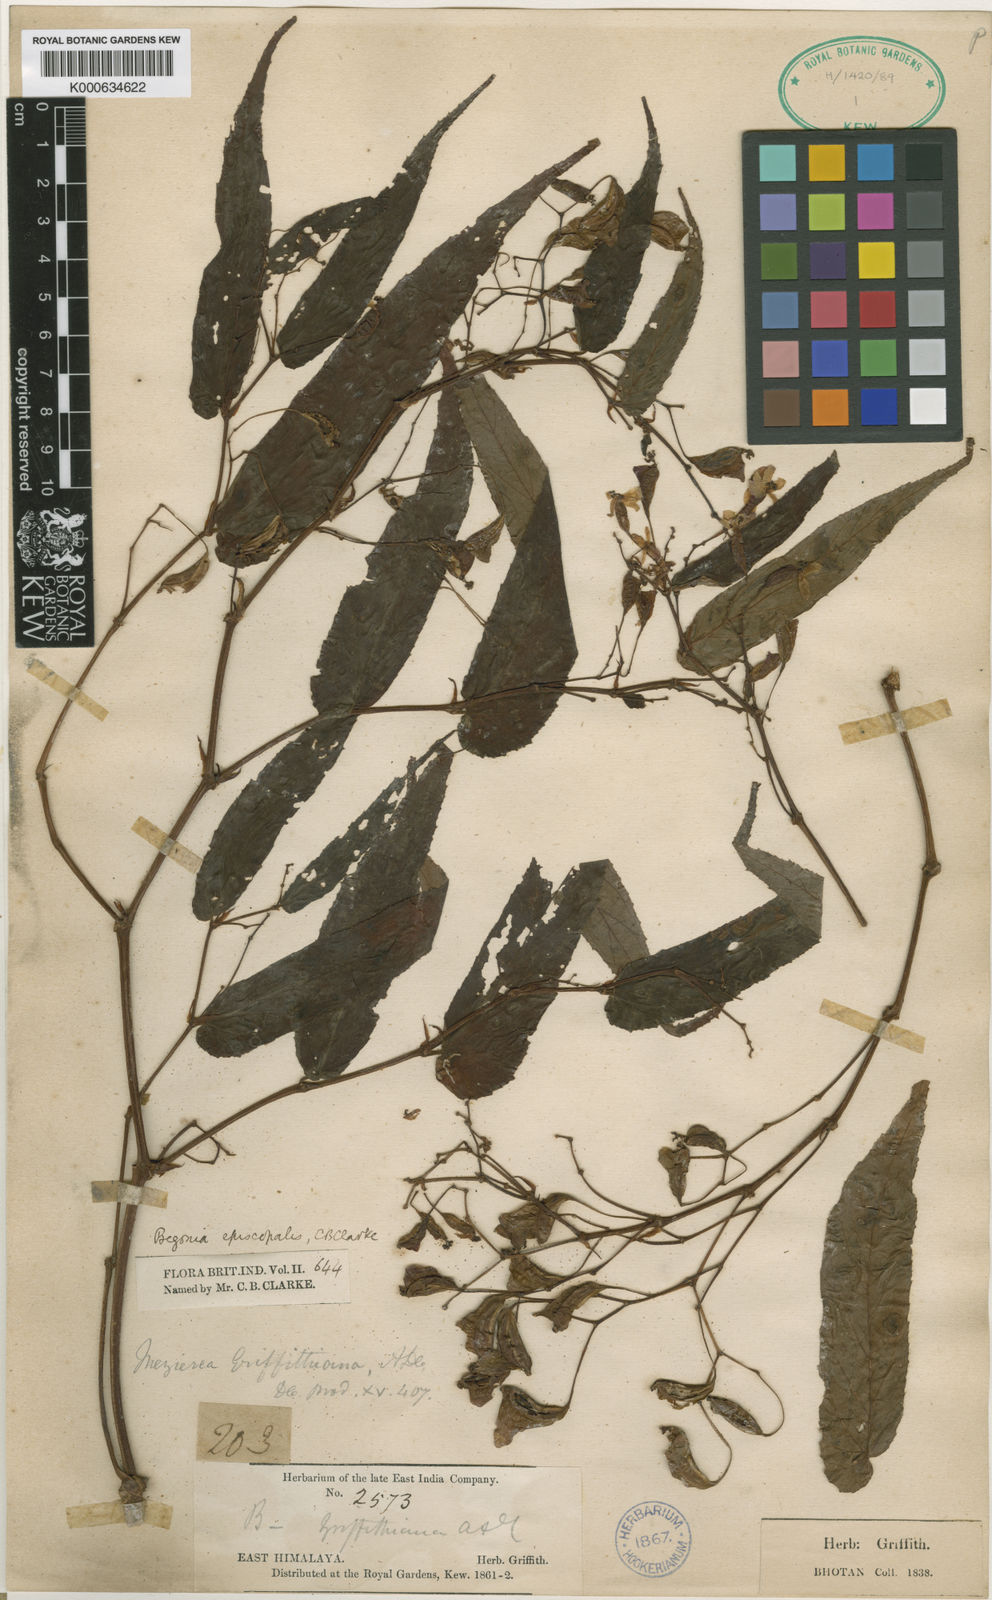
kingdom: Plantae
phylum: Tracheophyta
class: Magnoliopsida
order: Cucurbitales
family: Begoniaceae
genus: Begonia
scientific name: Begonia griffithiana
